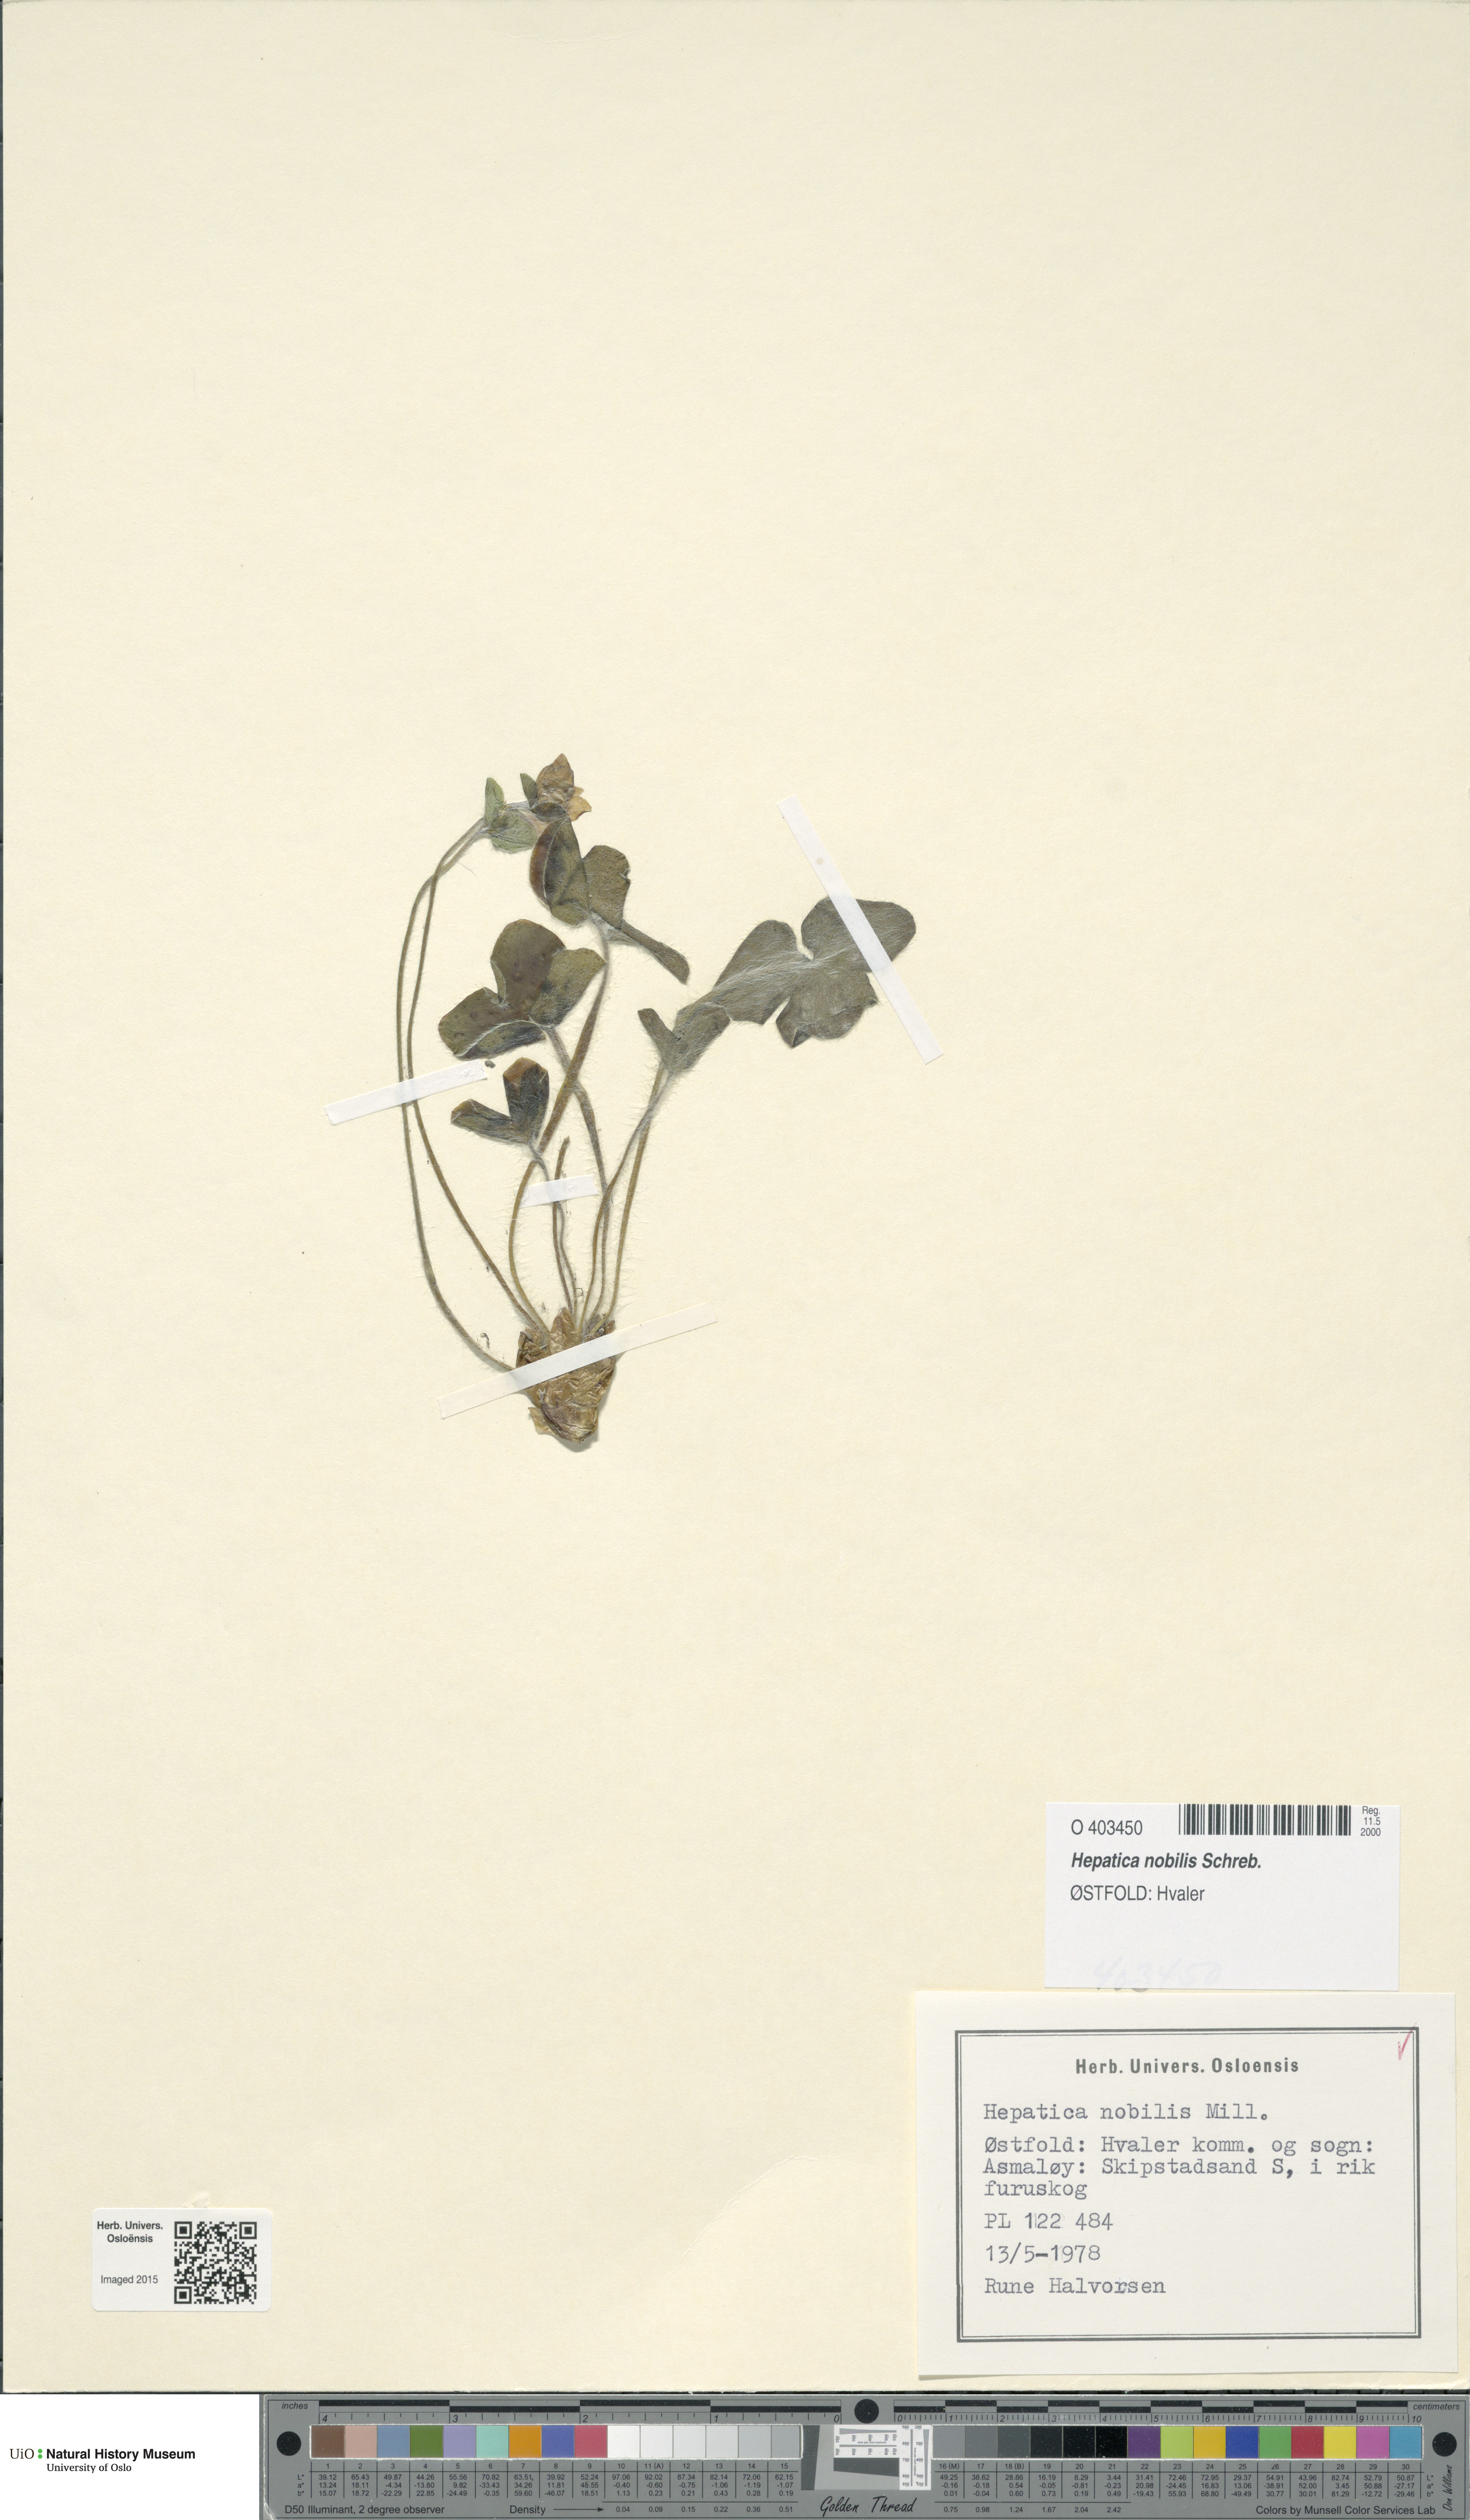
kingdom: Plantae
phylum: Tracheophyta
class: Magnoliopsida
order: Ranunculales
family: Ranunculaceae
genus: Hepatica
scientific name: Hepatica nobilis
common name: Liverleaf
